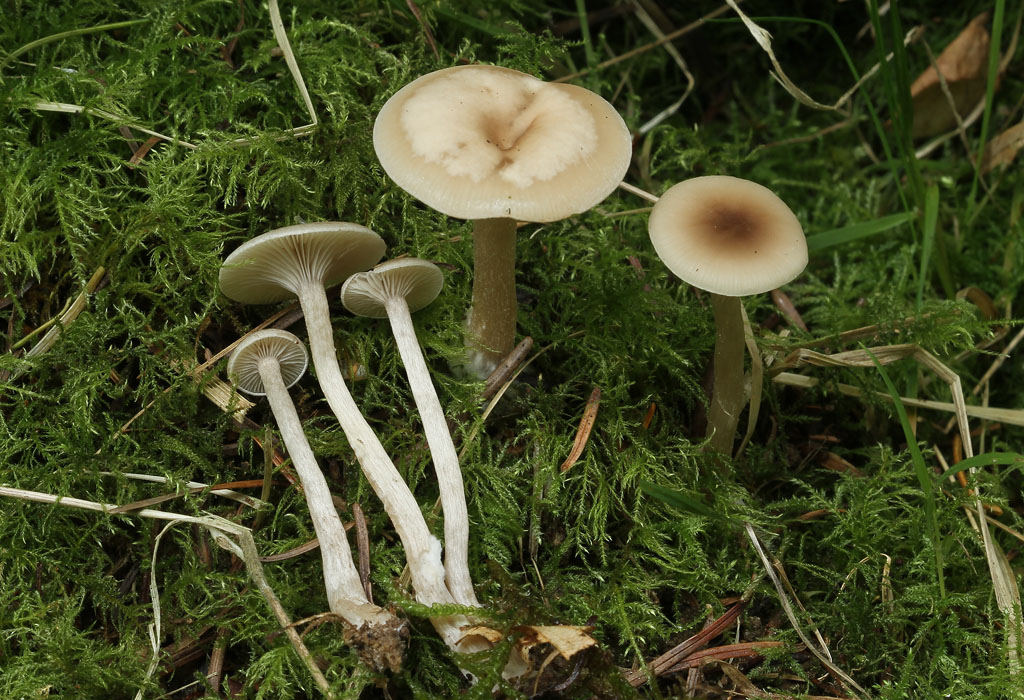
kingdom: Fungi
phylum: Basidiomycota
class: Agaricomycetes
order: Agaricales
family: Tricholomataceae
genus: Clitocybe
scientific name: Clitocybe fragrans
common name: vellugtende tragthat
